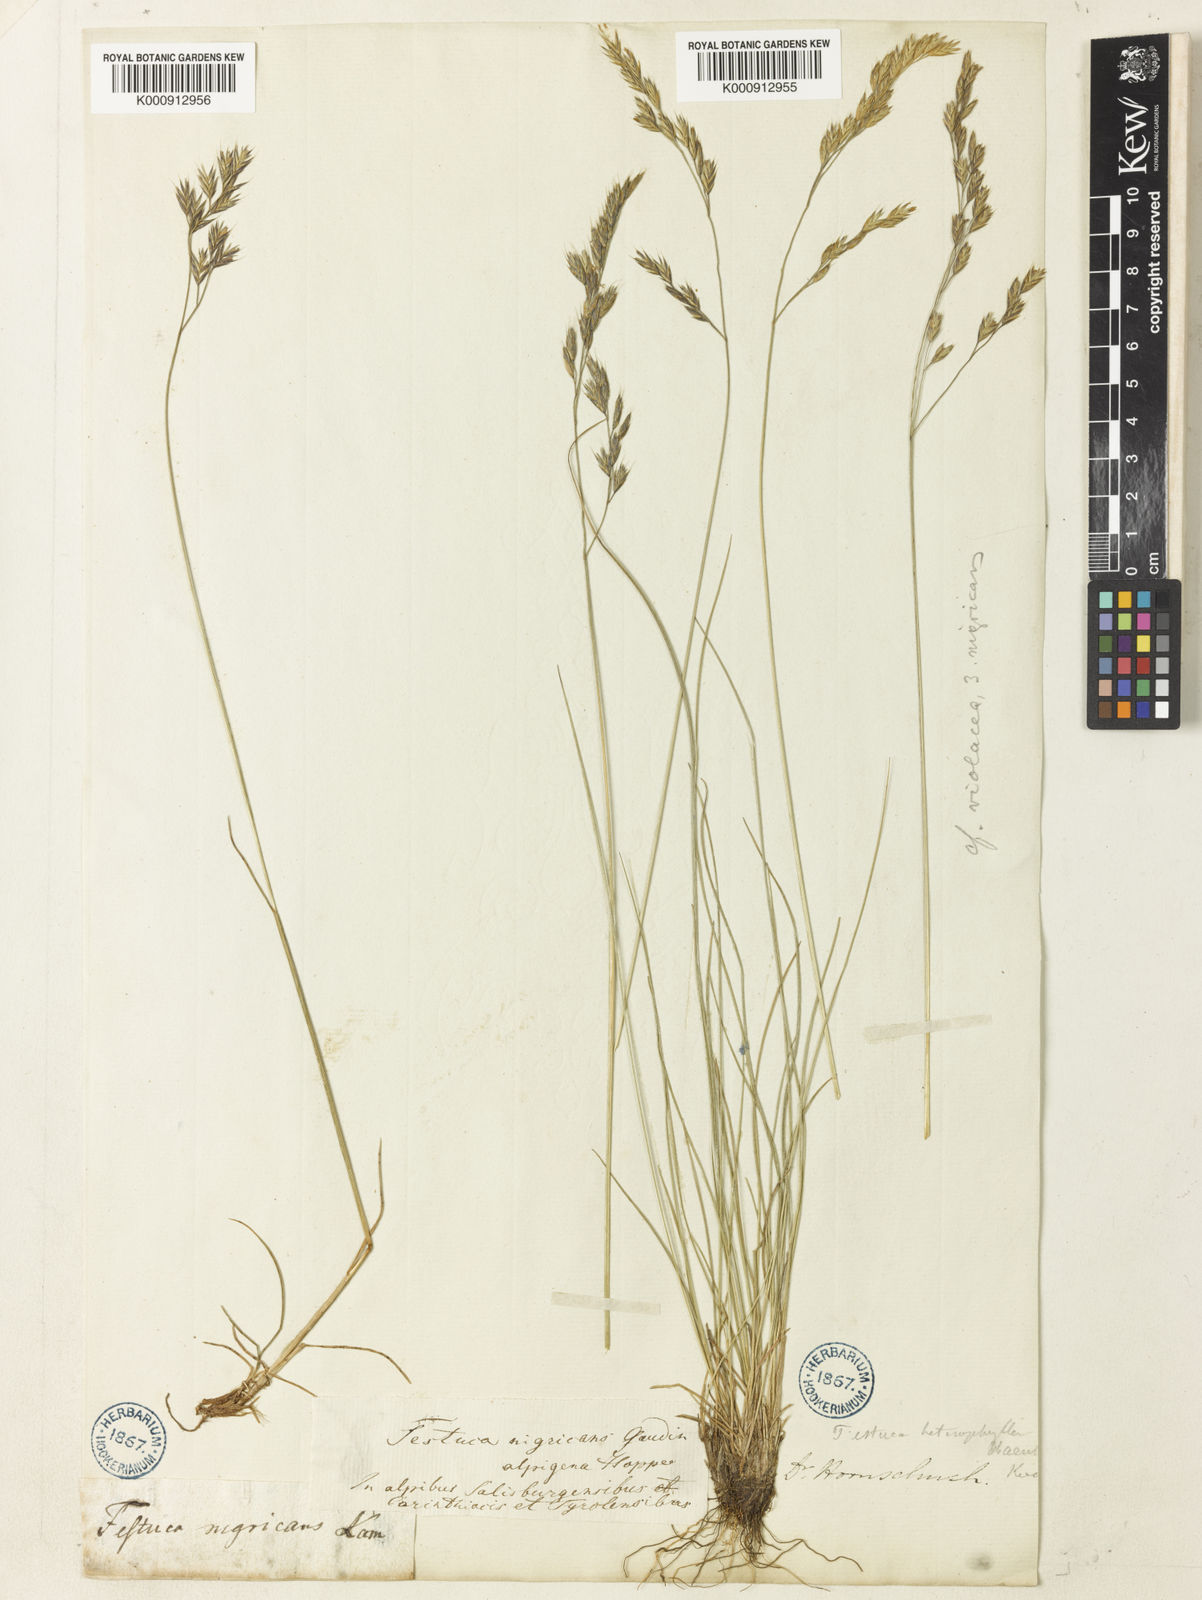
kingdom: Plantae
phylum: Tracheophyta
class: Liliopsida
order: Poales
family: Poaceae
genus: Festuca
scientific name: Festuca puccinellii
